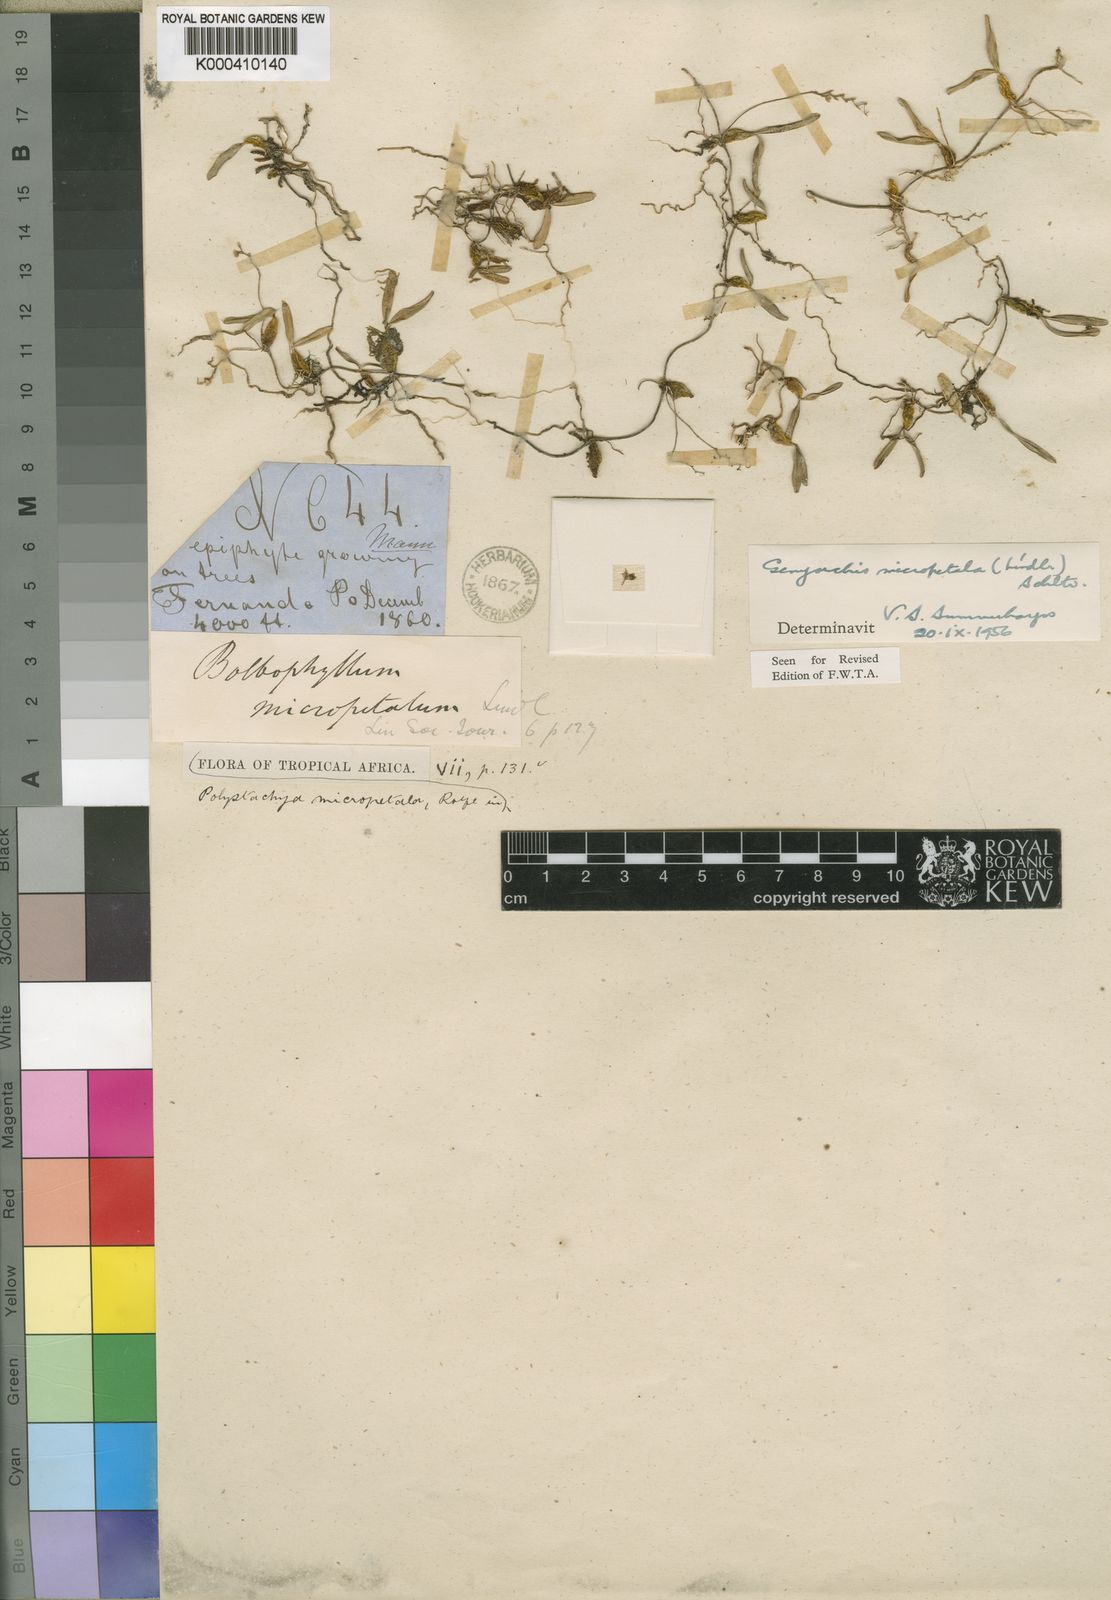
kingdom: Plantae
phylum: Tracheophyta
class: Liliopsida
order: Asparagales
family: Orchidaceae
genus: Bulbophyllum
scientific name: Bulbophyllum micropetalum
